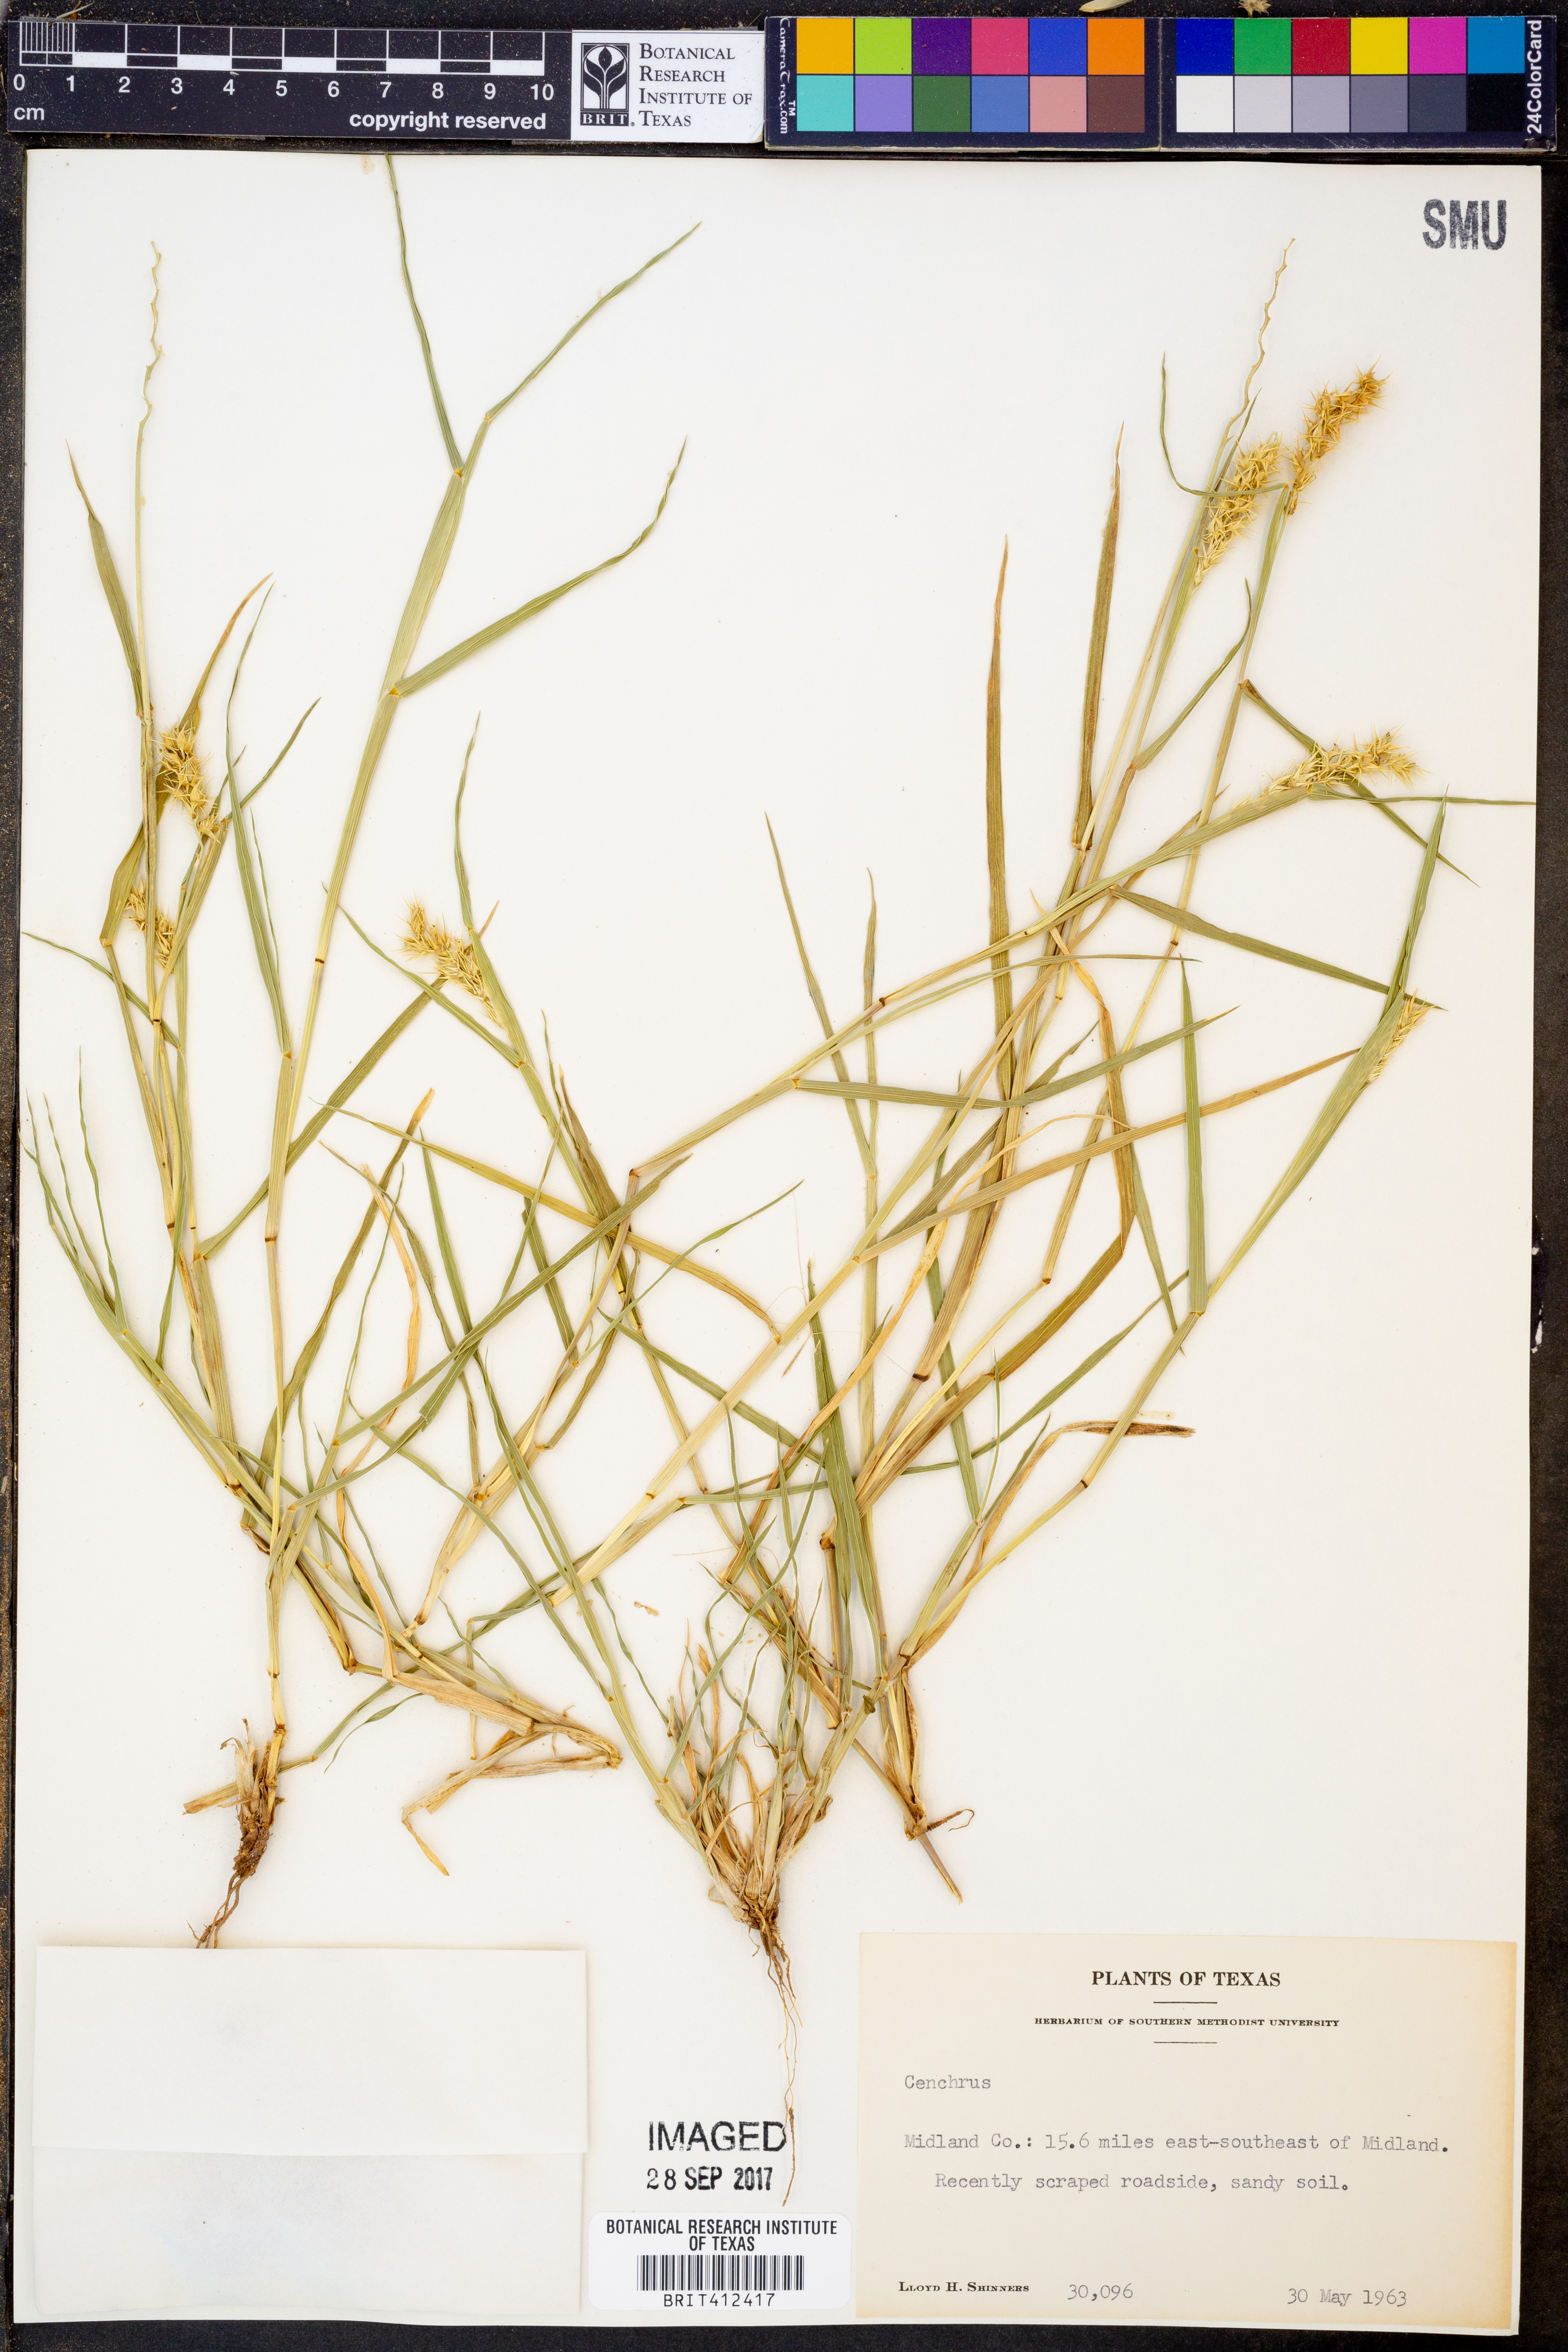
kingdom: Plantae
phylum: Tracheophyta
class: Liliopsida
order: Poales
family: Poaceae
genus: Cenchrus
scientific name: Cenchrus
